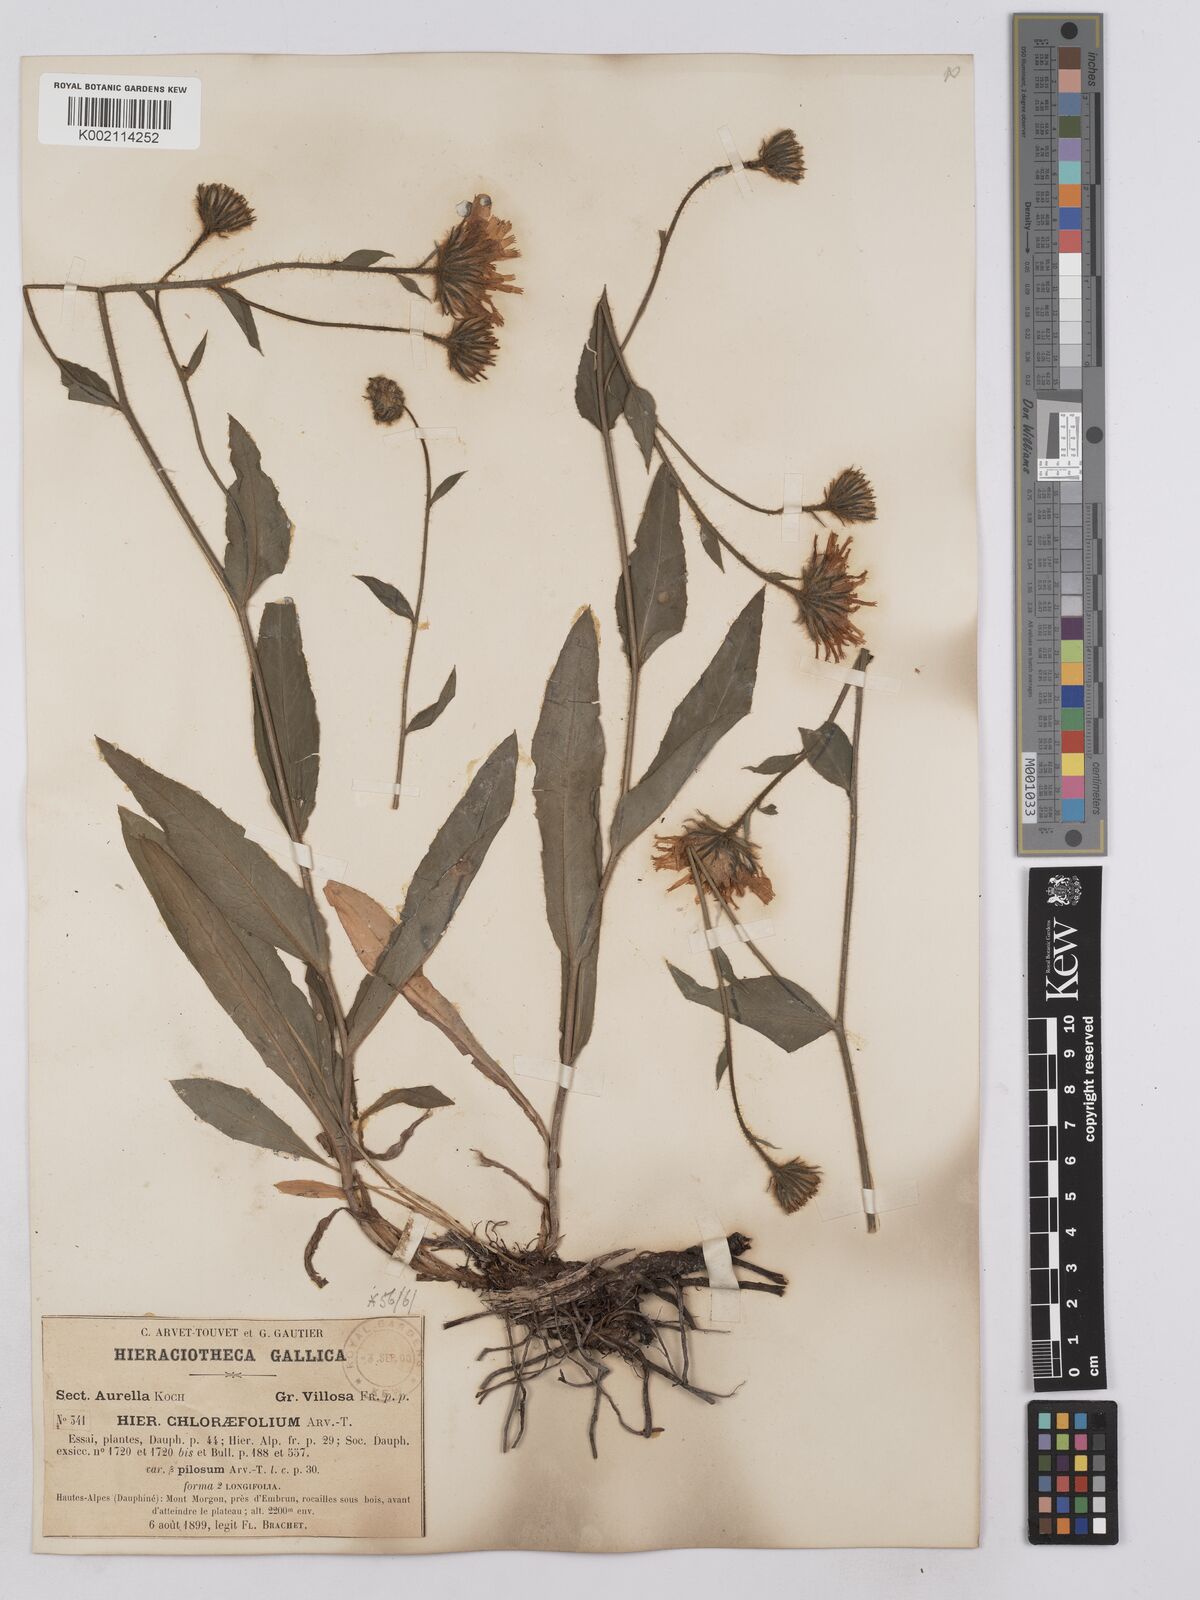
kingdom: Plantae
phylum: Tracheophyta
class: Magnoliopsida
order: Asterales
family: Asteraceae
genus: Hieracium
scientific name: Hieracium chlorifolium
